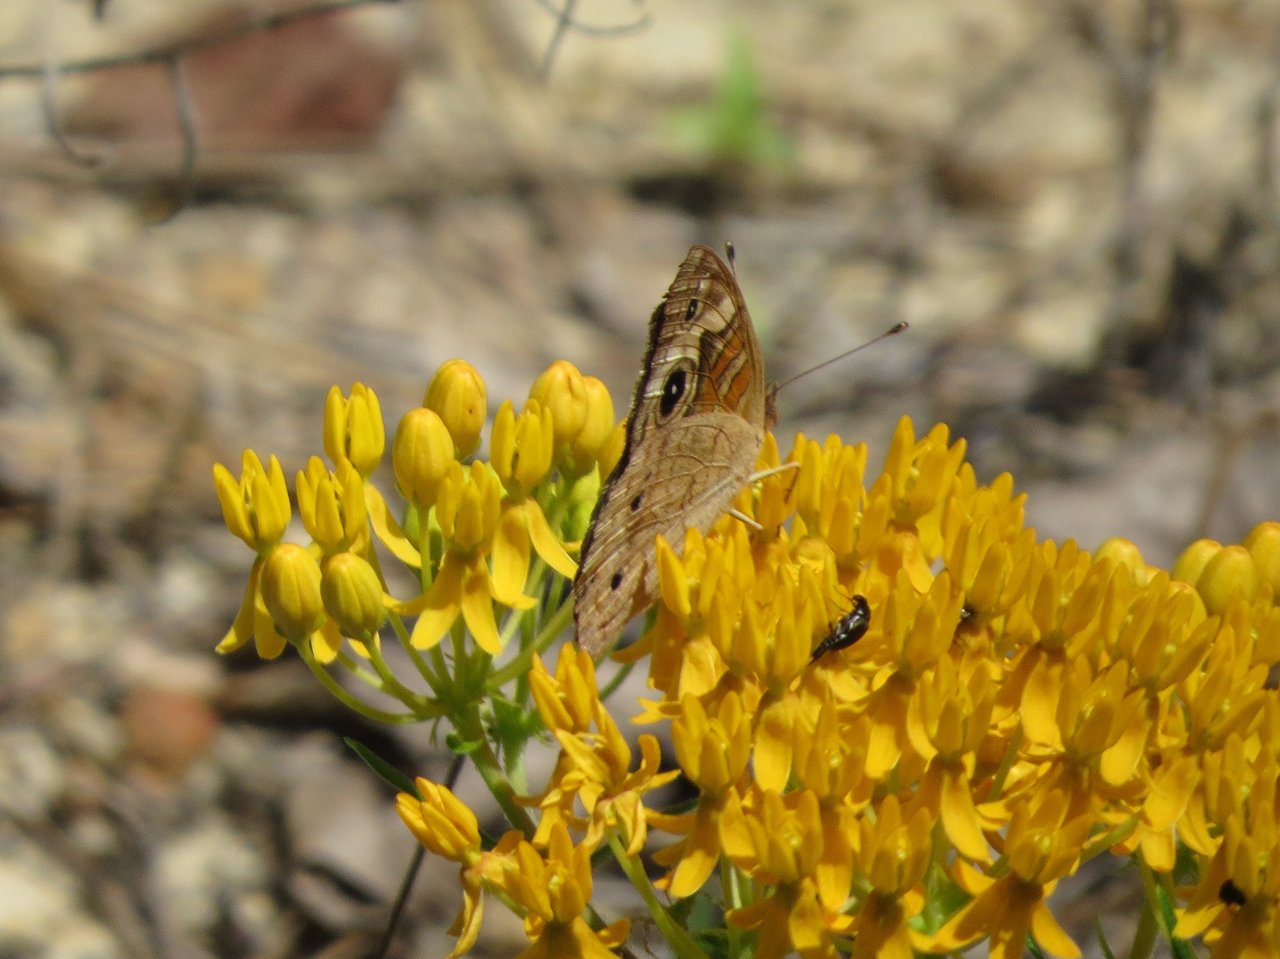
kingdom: Animalia
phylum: Arthropoda
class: Insecta
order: Lepidoptera
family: Nymphalidae
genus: Junonia
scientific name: Junonia coenia
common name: Common Buckeye
